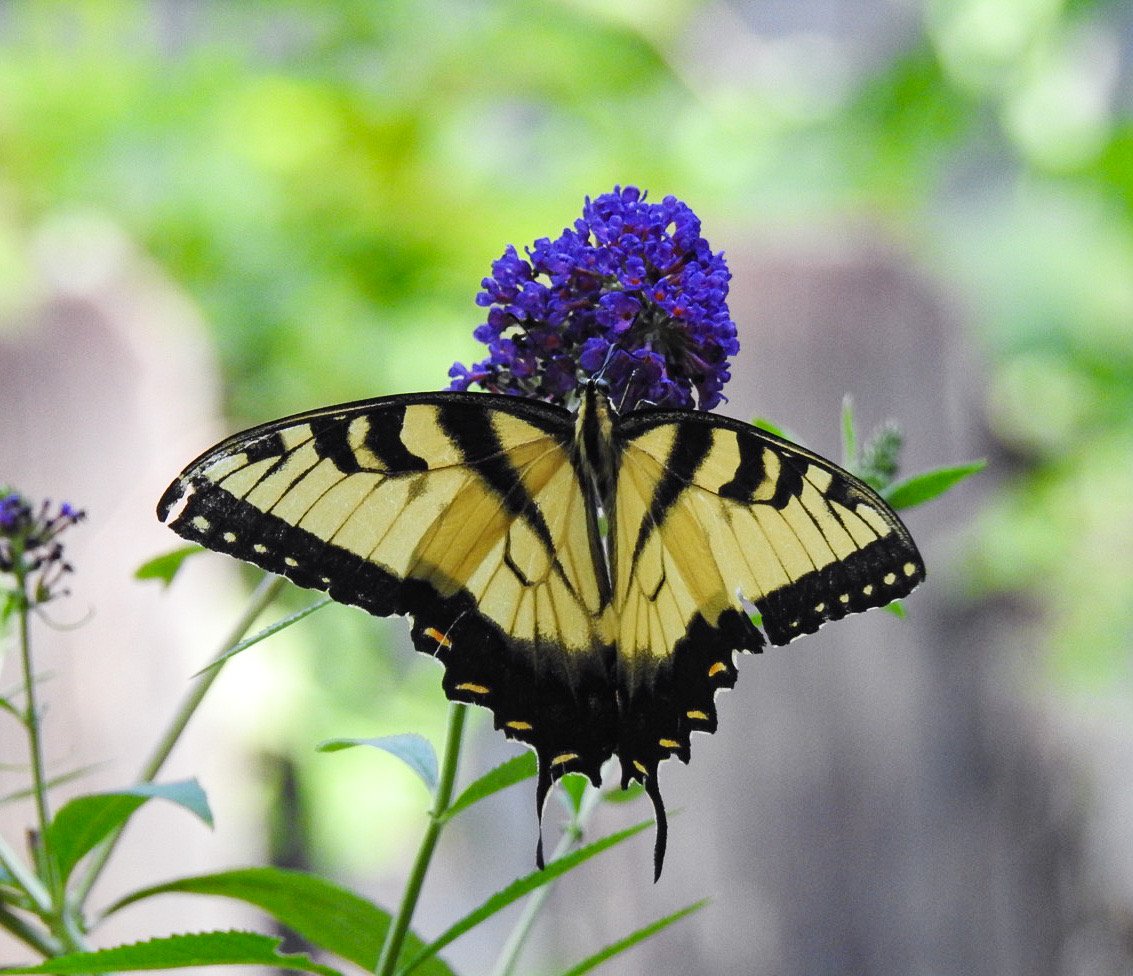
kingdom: Animalia
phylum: Arthropoda
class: Insecta
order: Lepidoptera
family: Papilionidae
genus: Pterourus
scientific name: Pterourus glaucus
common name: Eastern Tiger Swallowtail
